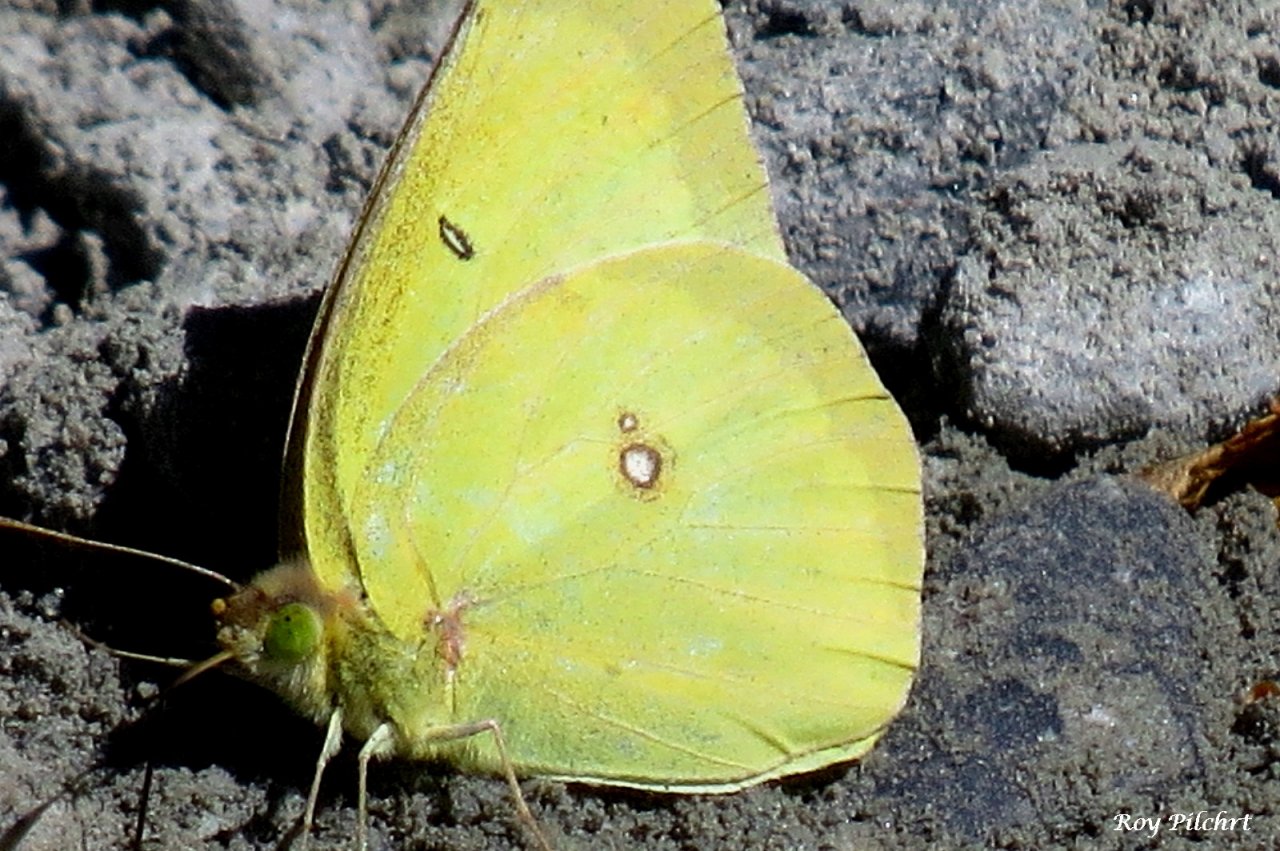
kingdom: Animalia
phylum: Arthropoda
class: Insecta
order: Lepidoptera
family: Pieridae
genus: Colias
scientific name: Colias philodice
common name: Clouded Sulphur
